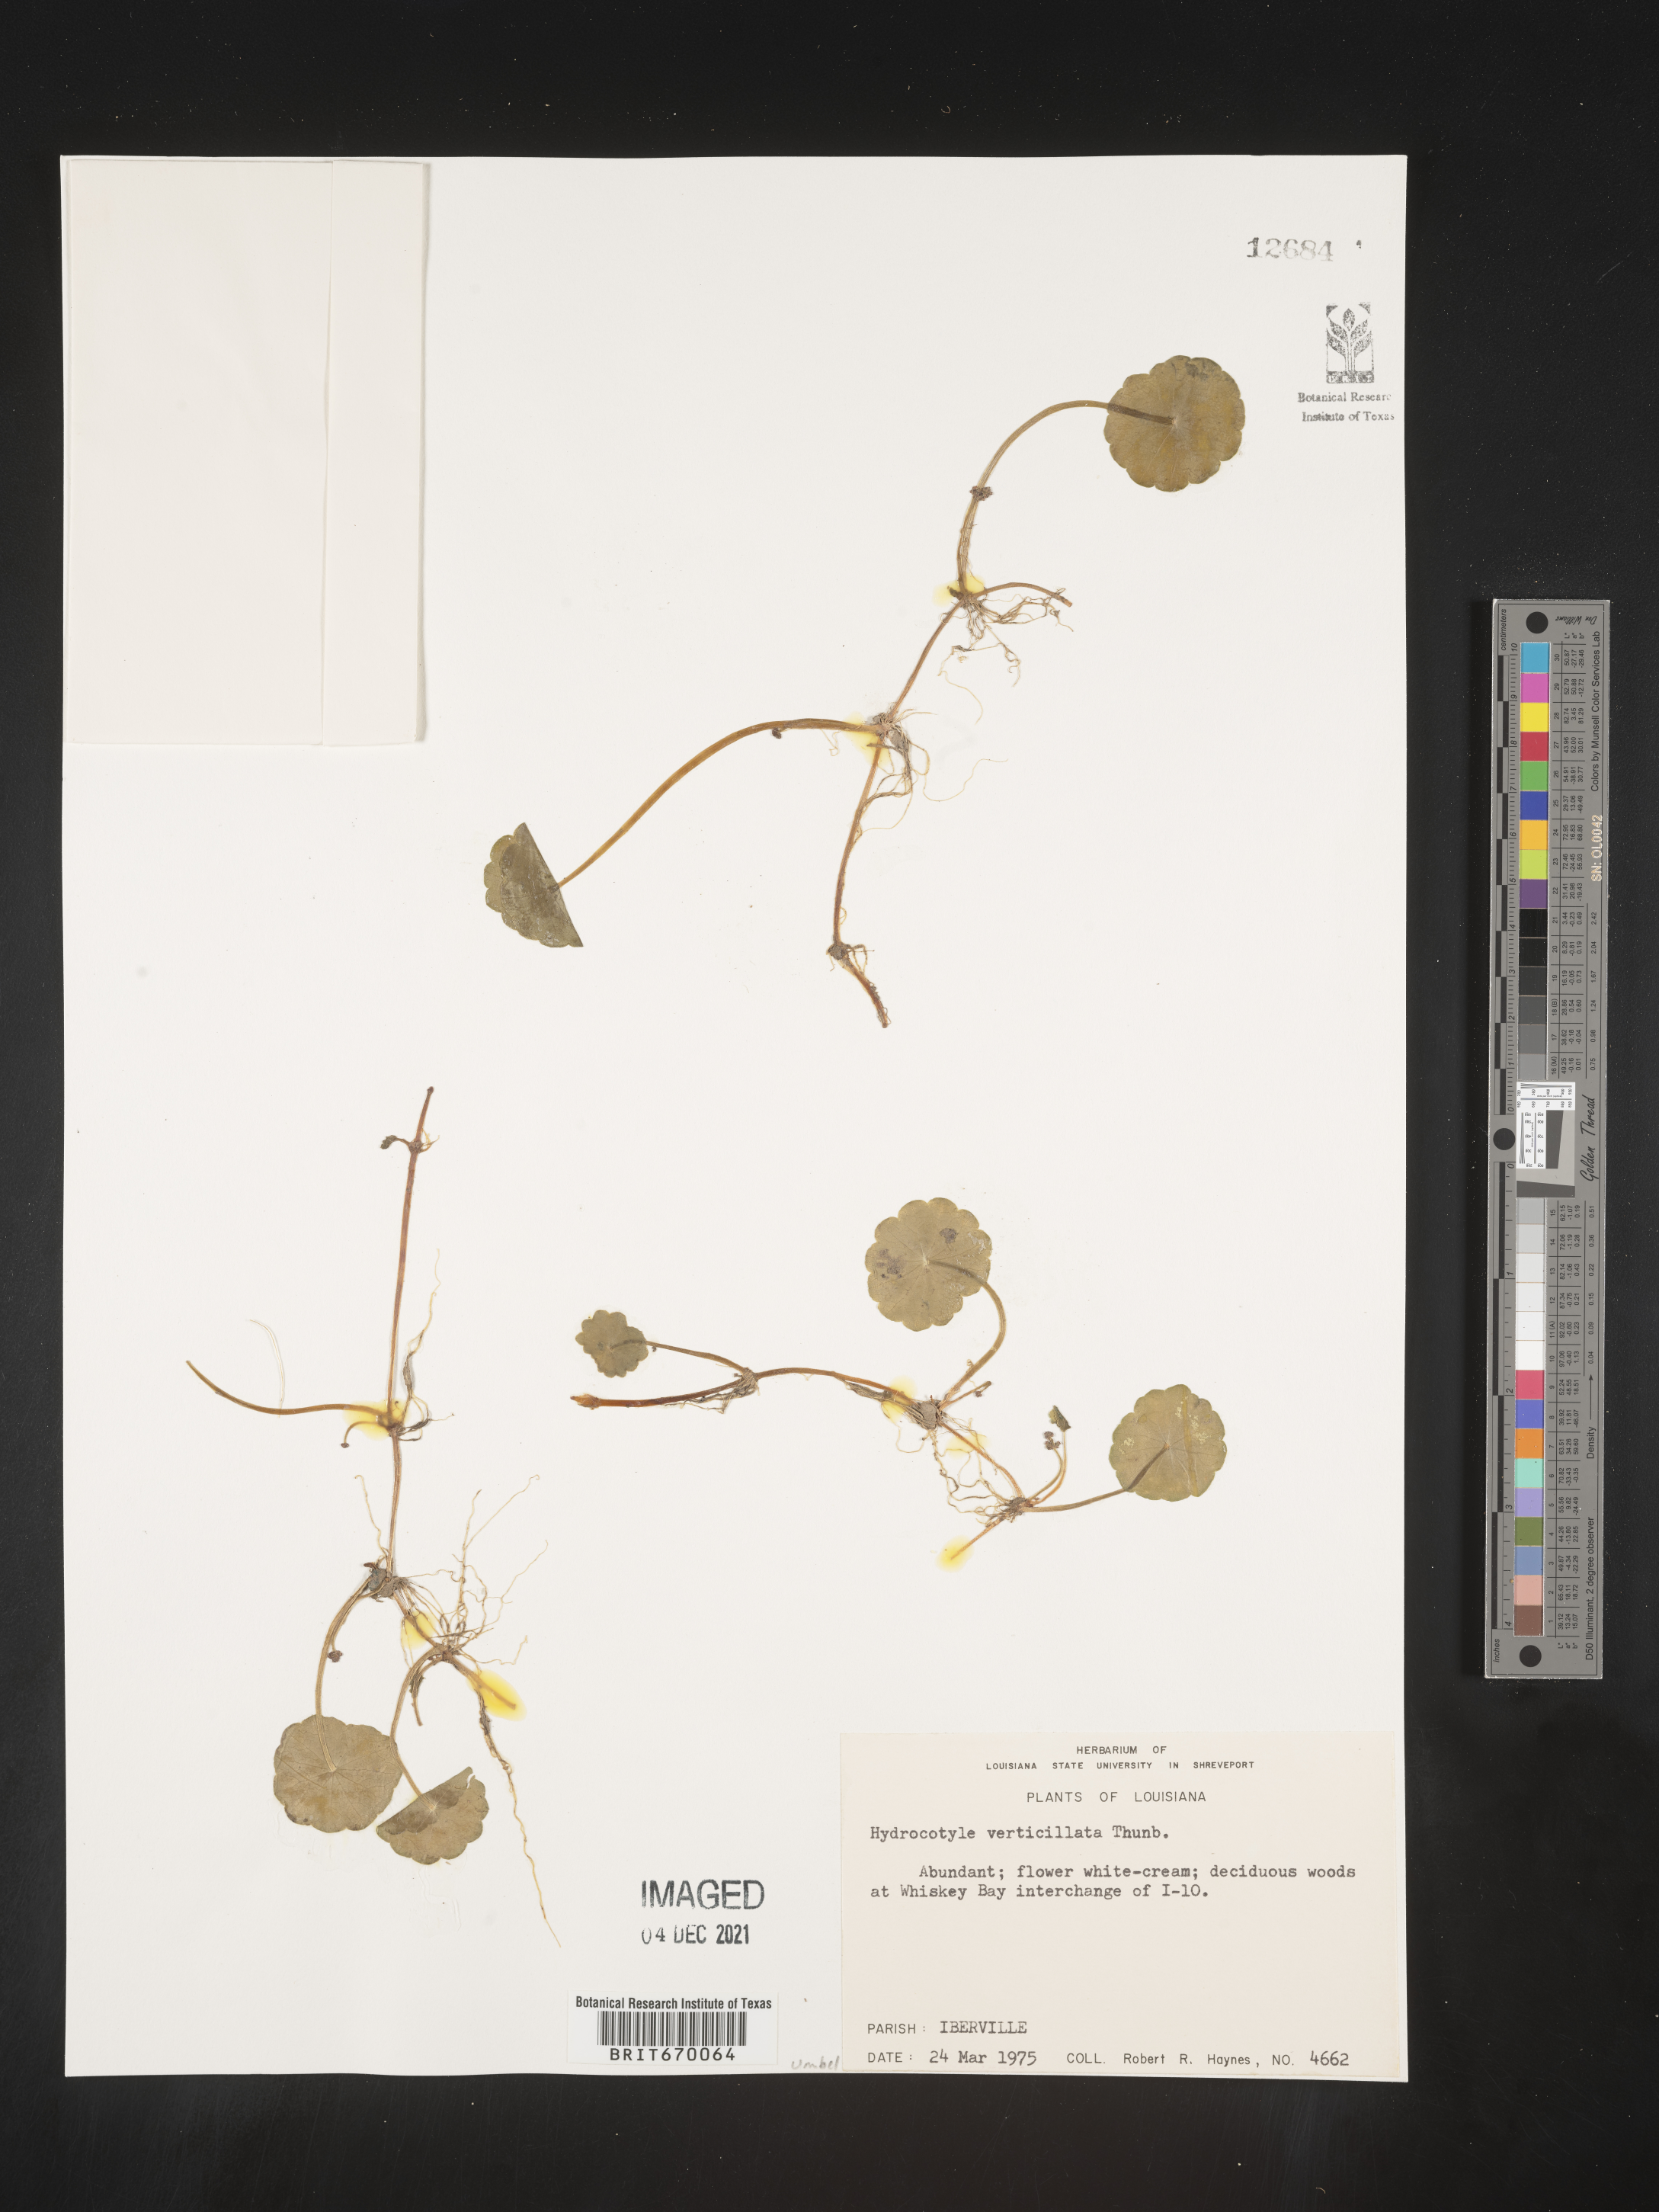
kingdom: Plantae
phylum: Tracheophyta
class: Magnoliopsida
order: Apiales
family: Araliaceae
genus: Hydrocotyle
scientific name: Hydrocotyle verticillata
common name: Whorled marshpennywort
